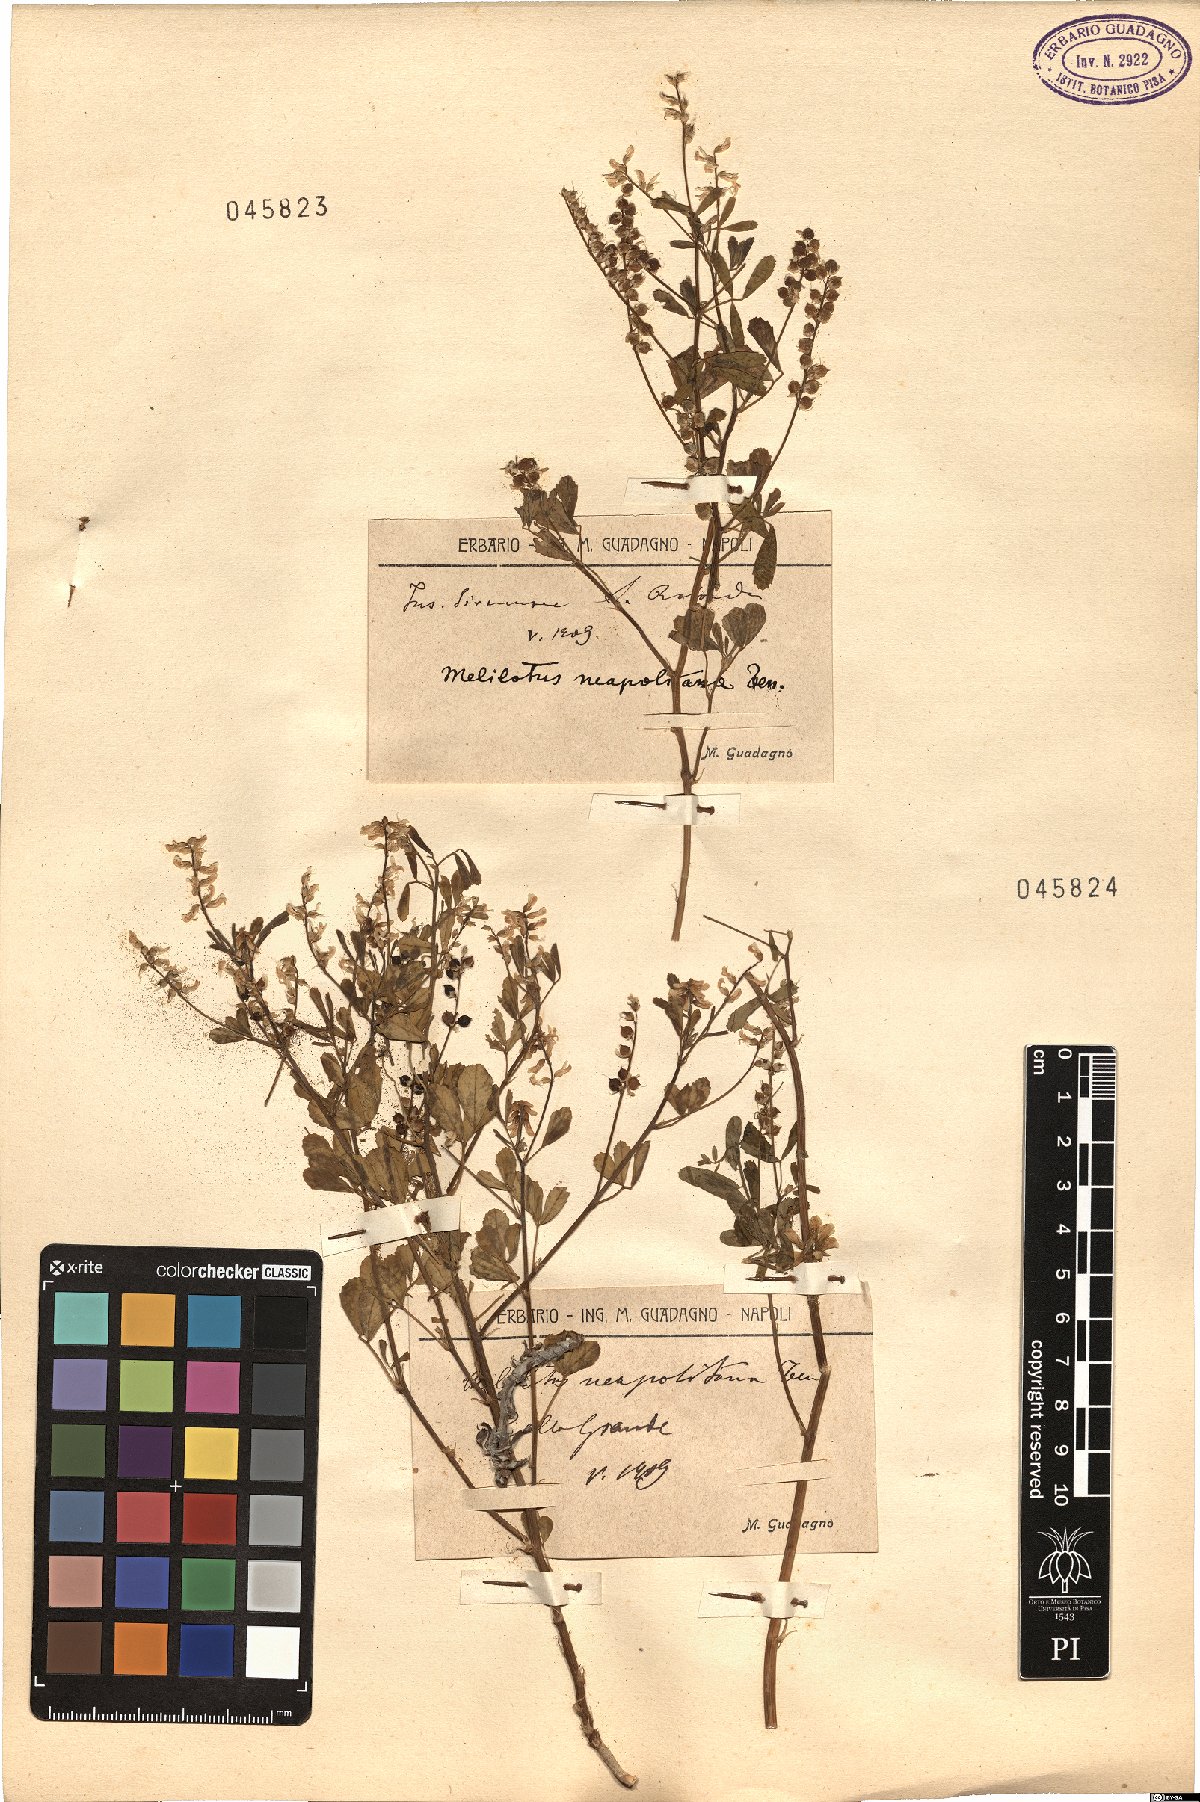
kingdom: Plantae
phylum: Tracheophyta
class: Magnoliopsida
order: Fabales
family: Fabaceae
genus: Melilotus
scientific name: Melilotus neapolitanus
